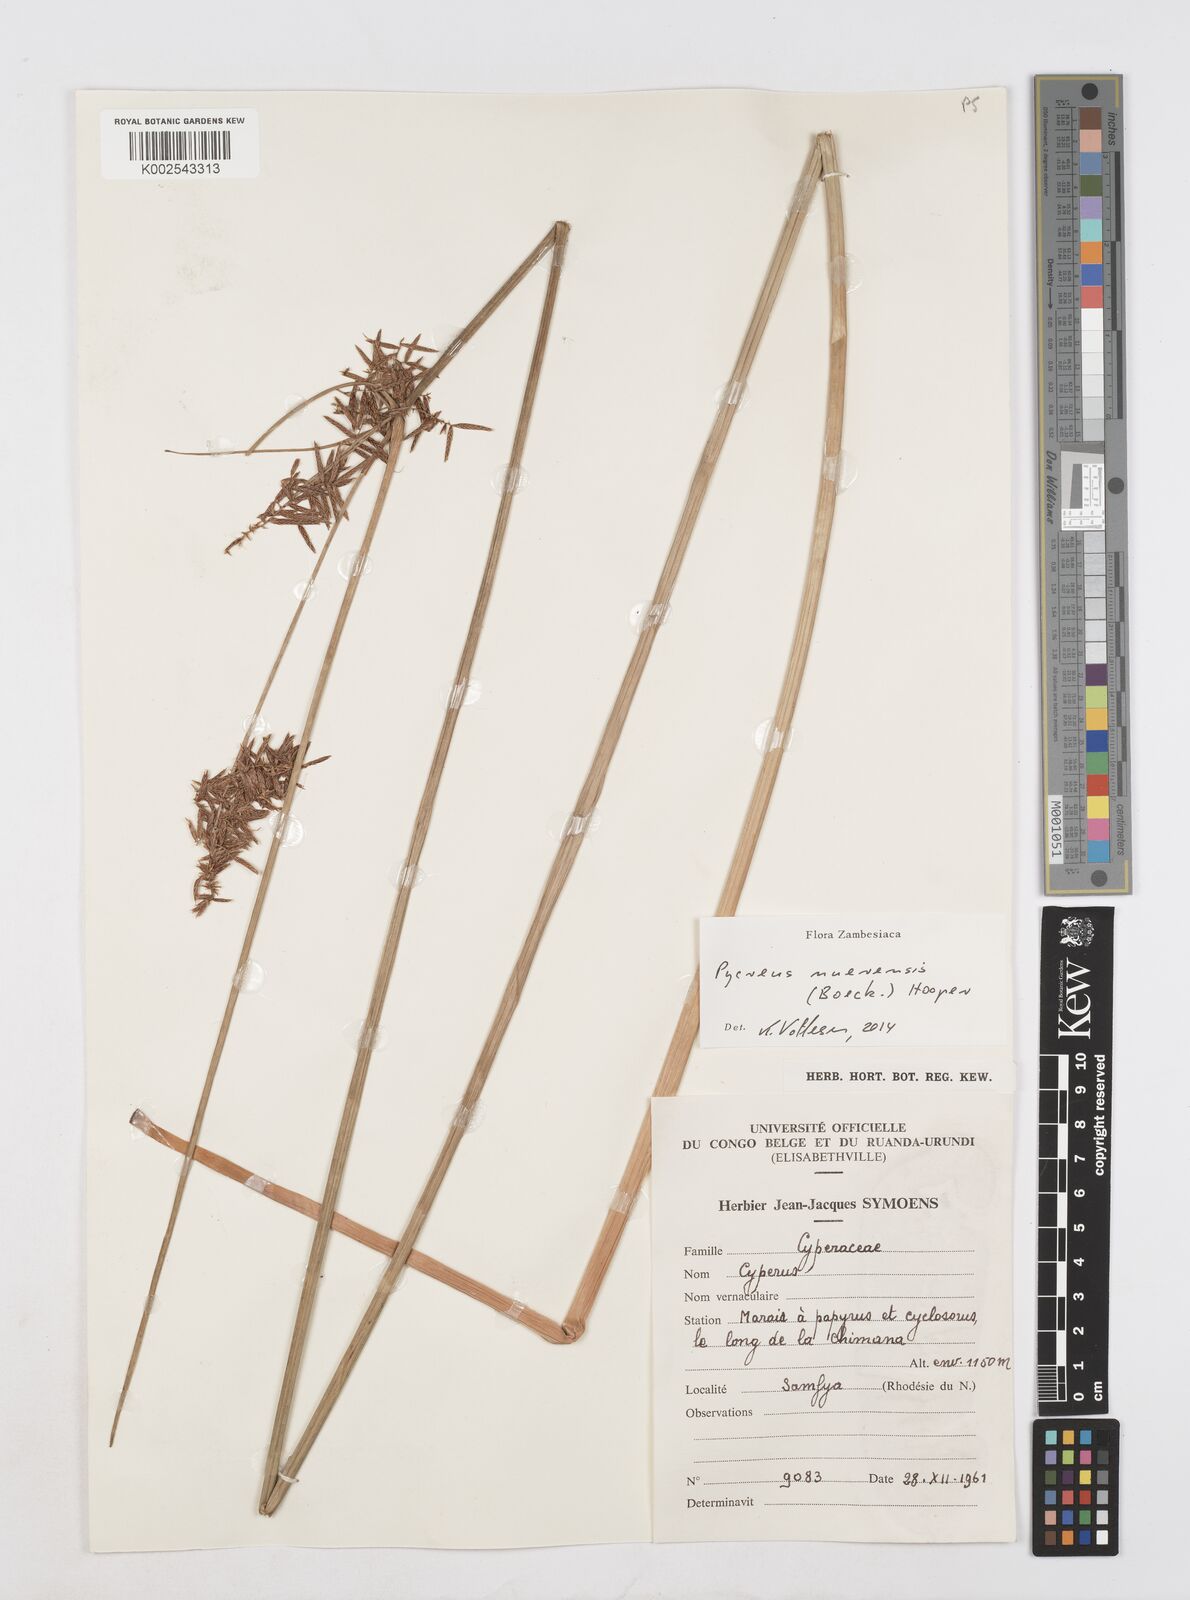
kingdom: Plantae
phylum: Tracheophyta
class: Liliopsida
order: Poales
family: Cyperaceae
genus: Cyperus
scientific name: Cyperus nuerensis
